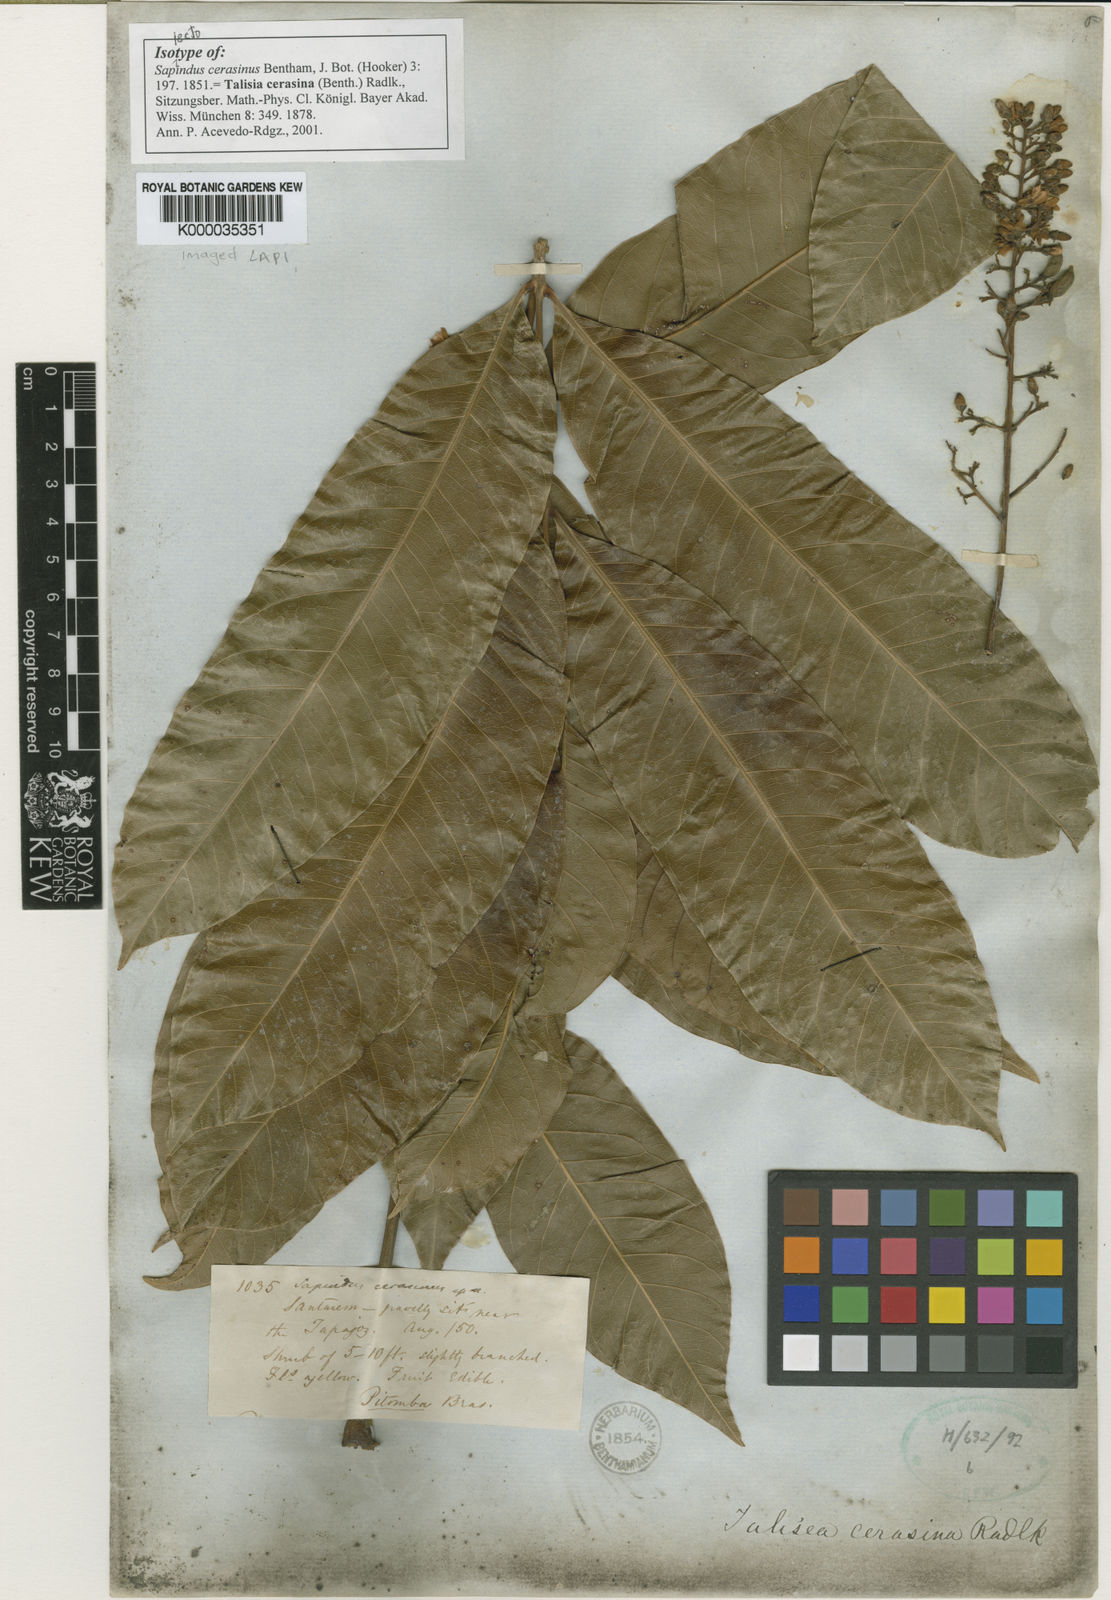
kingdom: Plantae
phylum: Tracheophyta
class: Magnoliopsida
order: Sapindales
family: Sapindaceae
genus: Talisia
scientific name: Talisia cerasina
